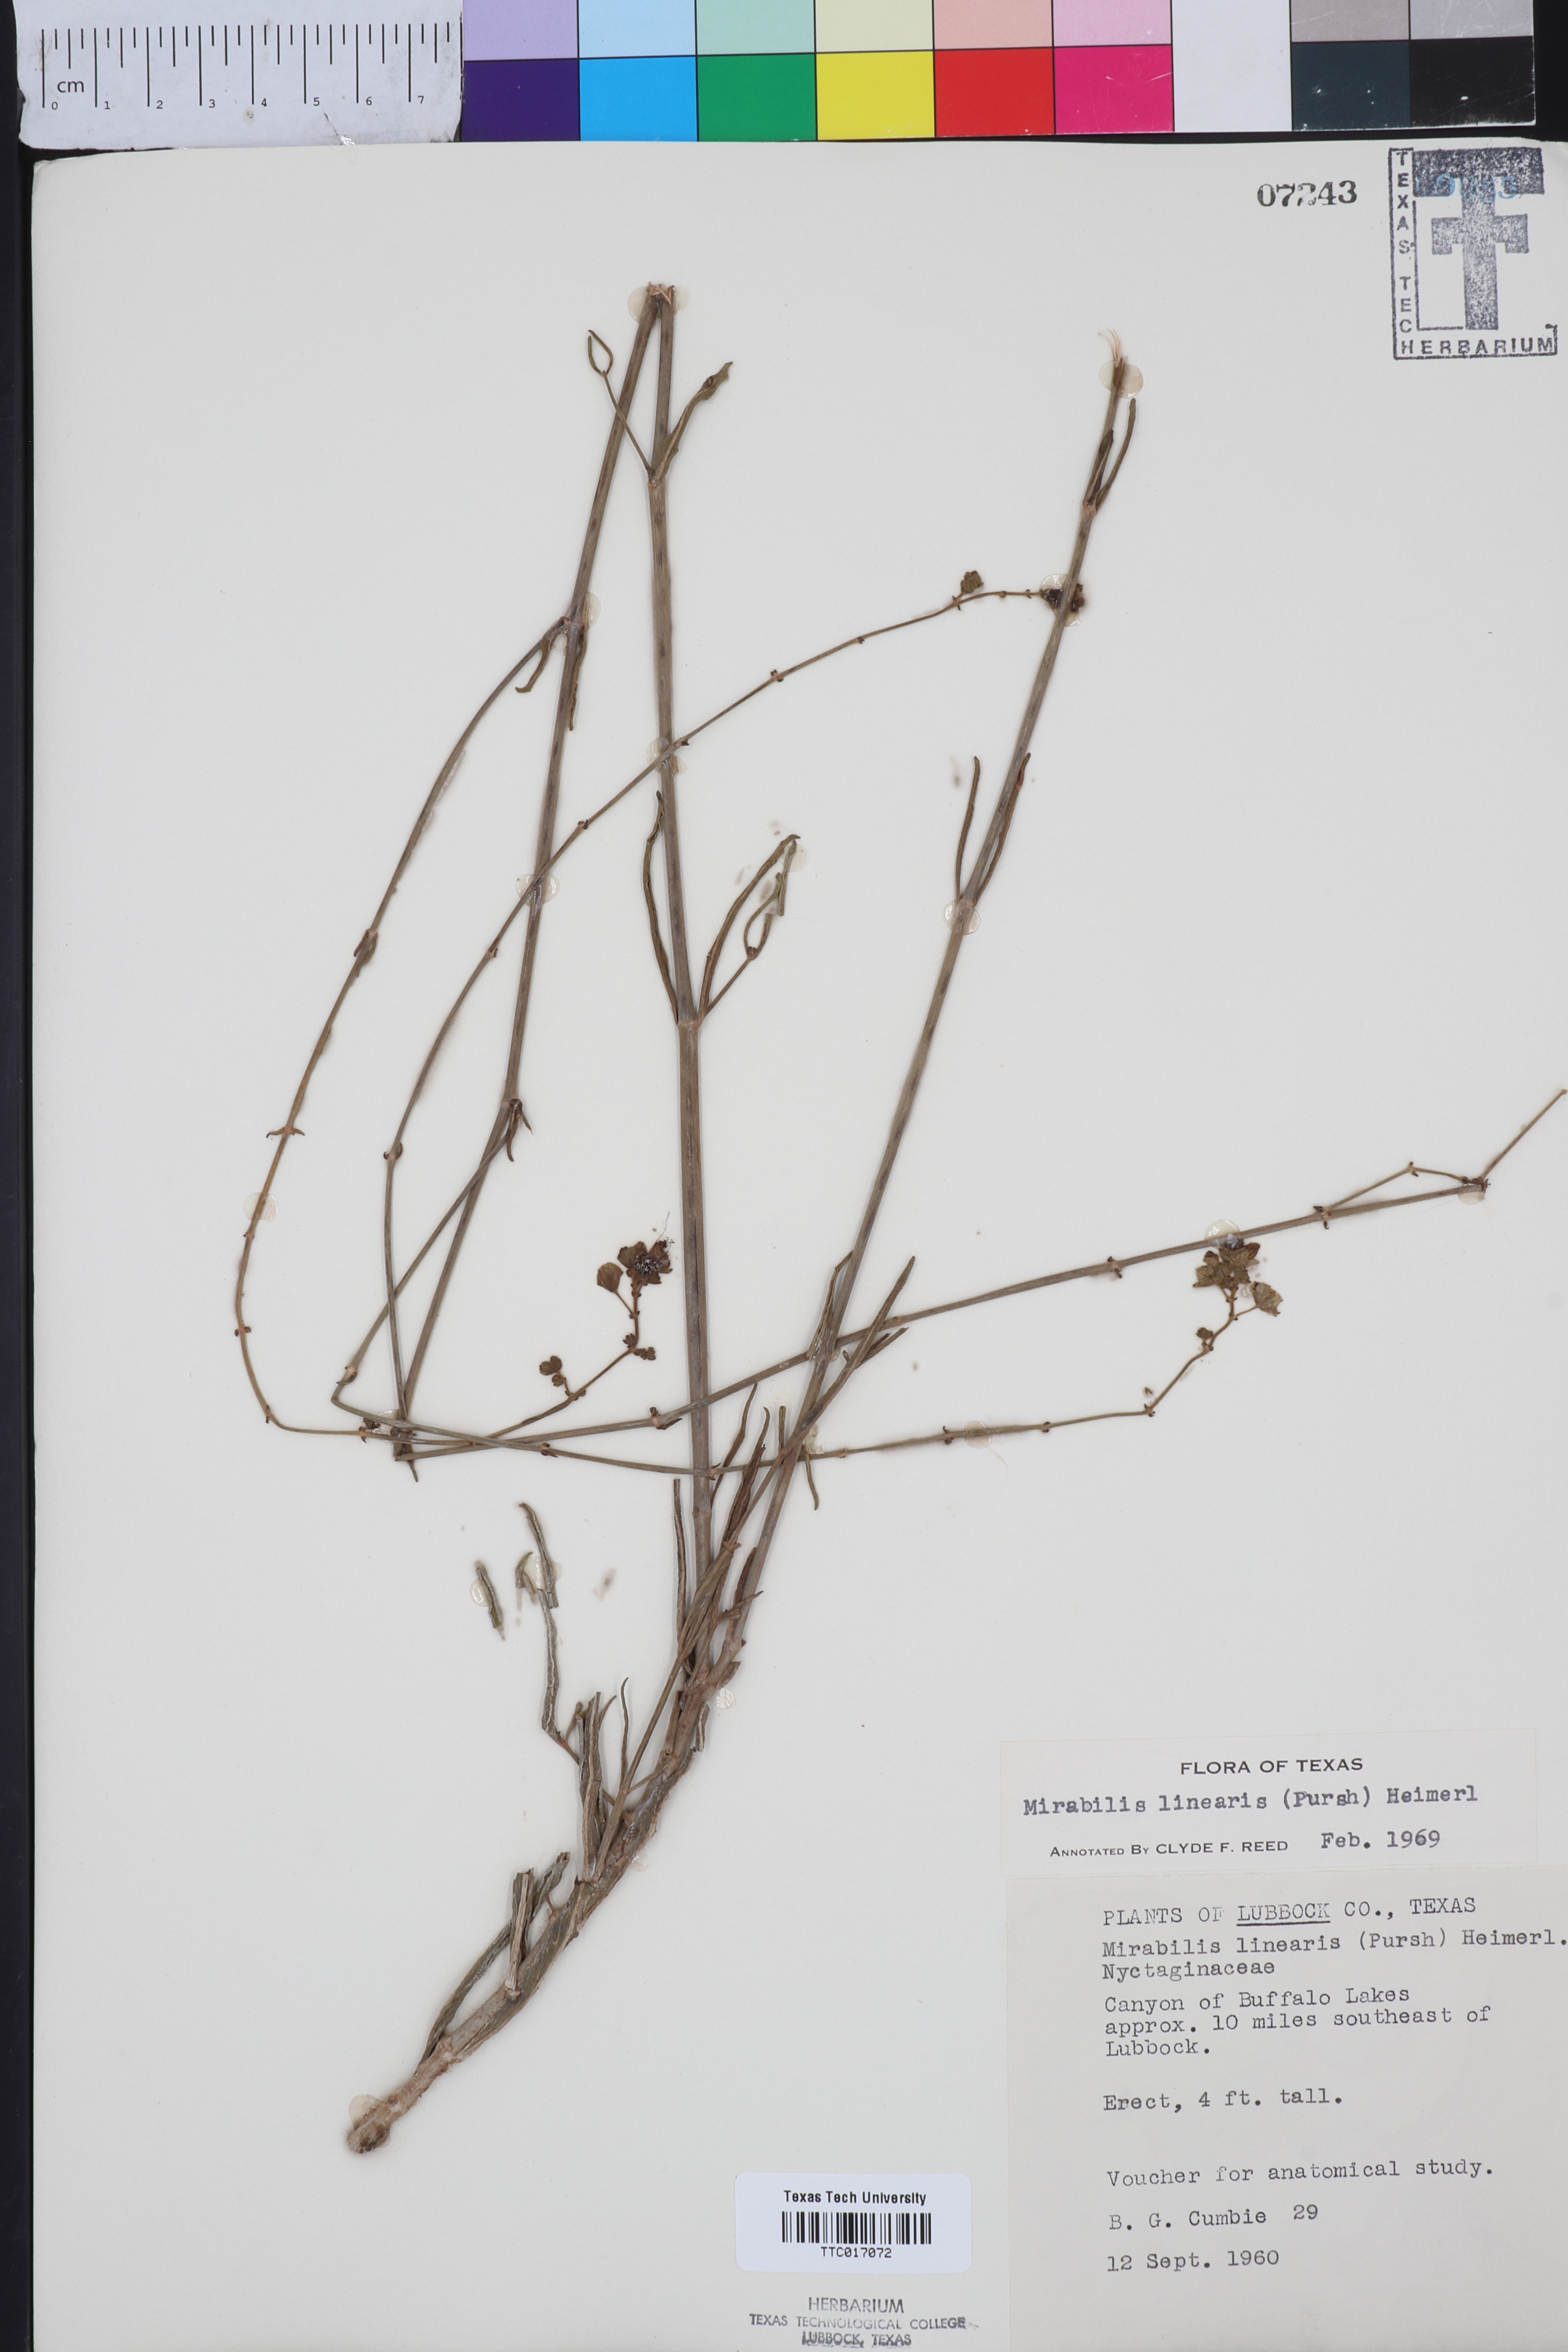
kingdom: Plantae
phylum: Tracheophyta
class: Magnoliopsida
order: Caryophyllales
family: Nyctaginaceae
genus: Mirabilis
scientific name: Mirabilis linearis
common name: Linear-leaved four-o'clock
